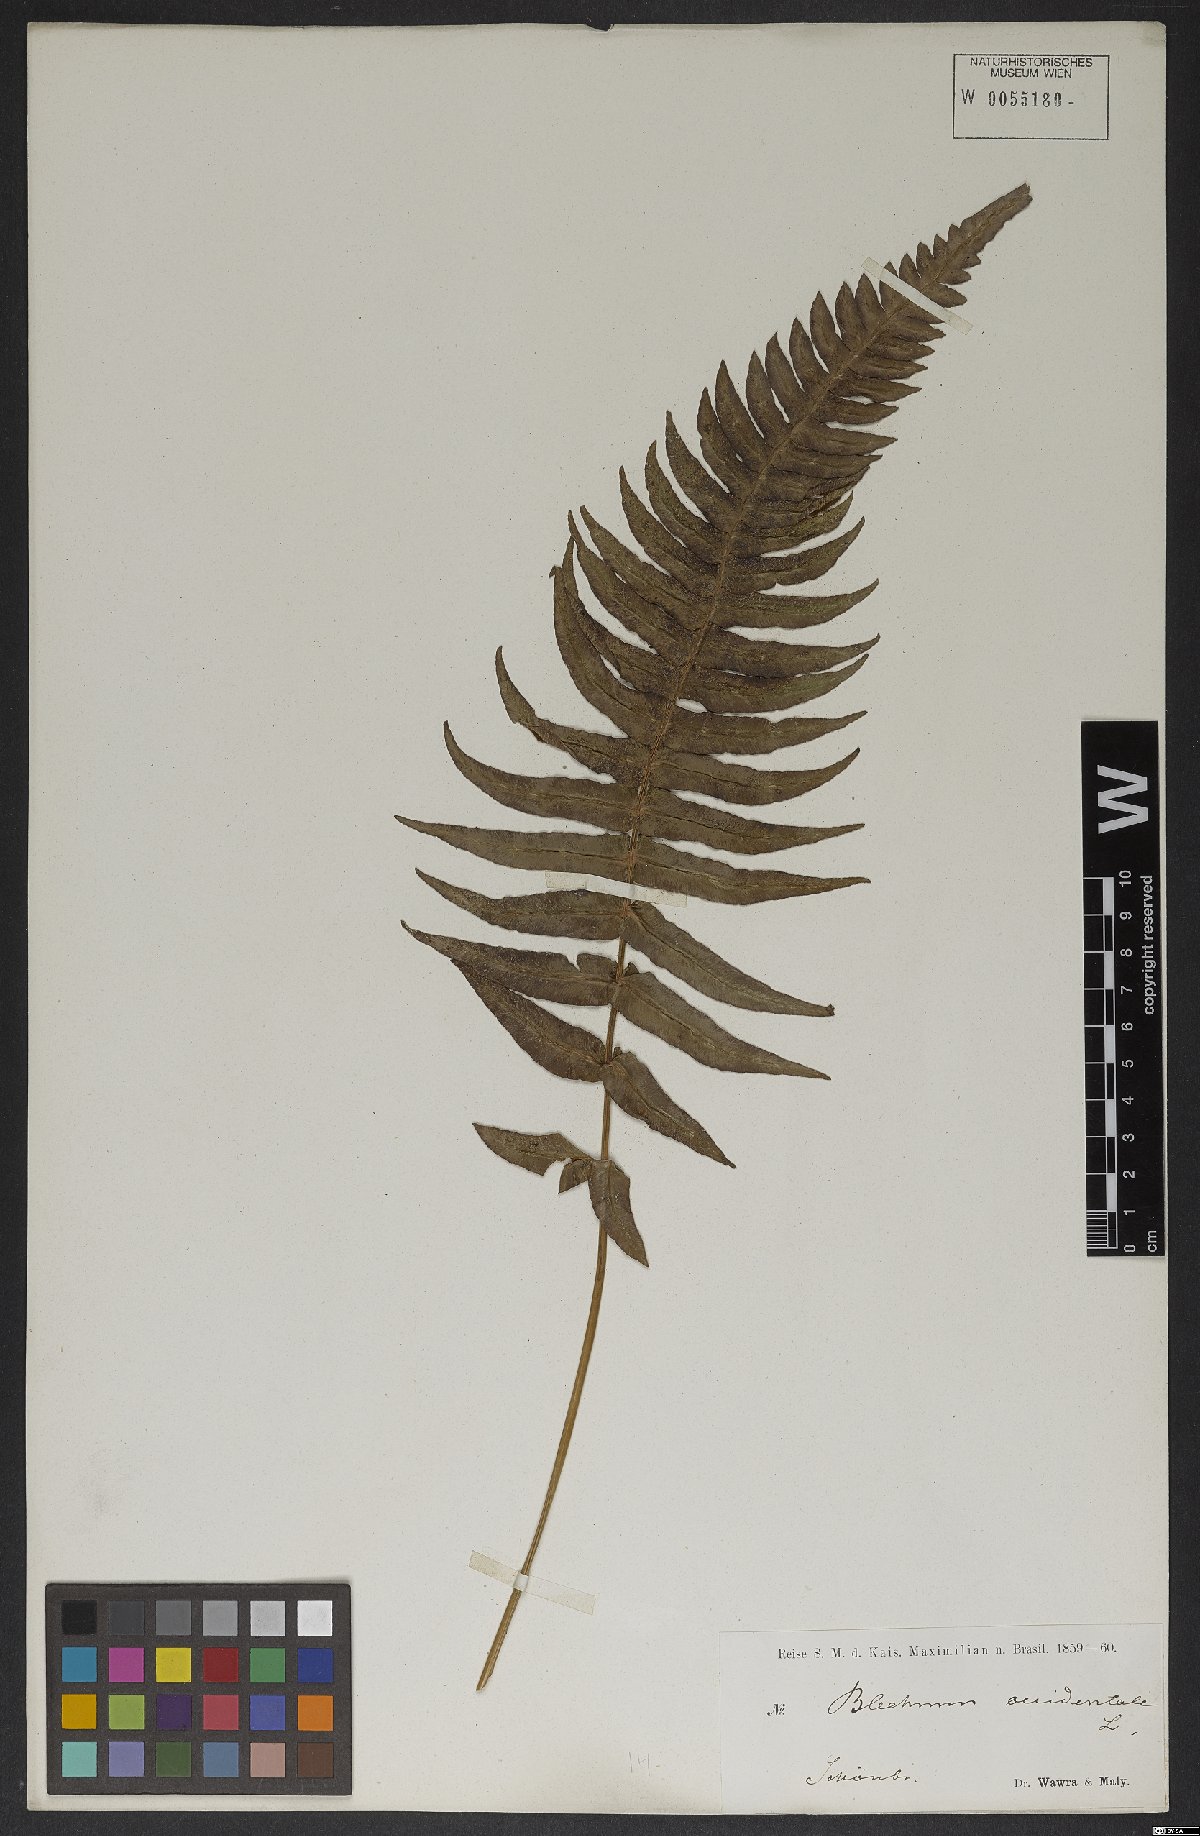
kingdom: Plantae
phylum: Tracheophyta
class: Polypodiopsida
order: Polypodiales
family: Blechnaceae
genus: Blechnum
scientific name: Blechnum occidentale
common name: Hammock fern
